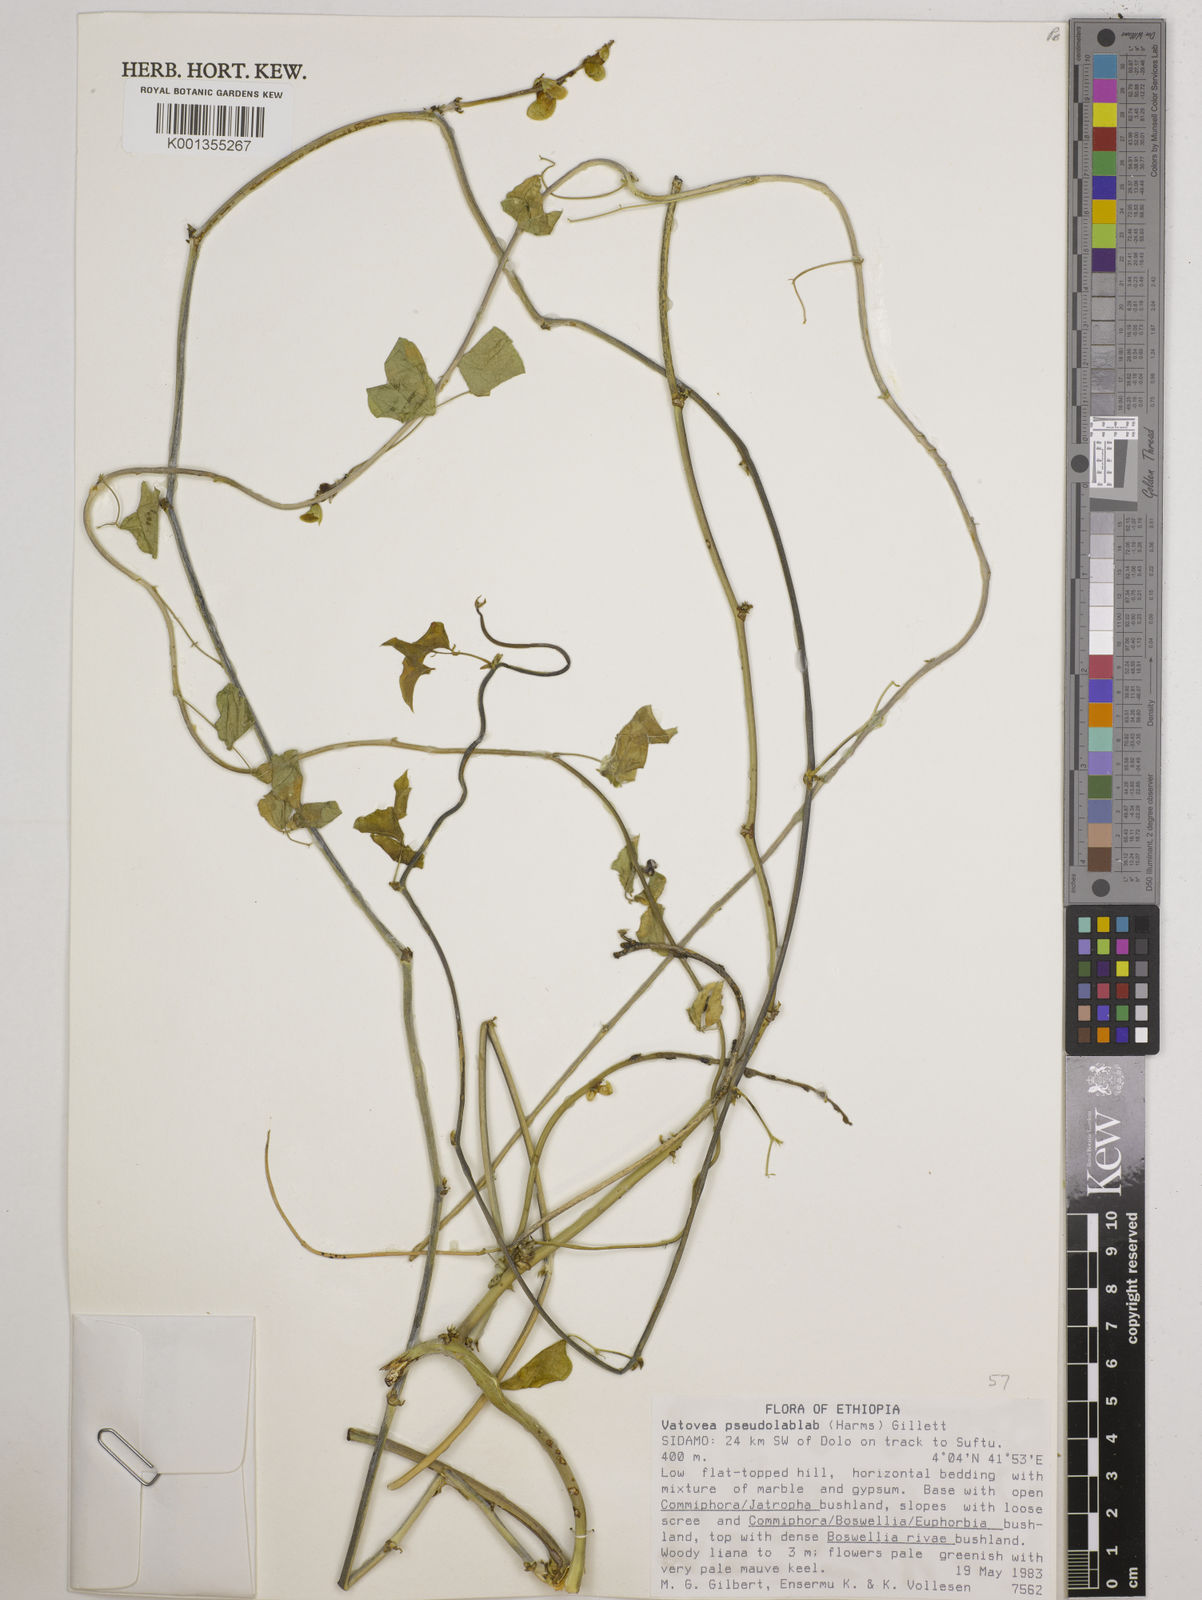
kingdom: Plantae
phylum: Tracheophyta
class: Magnoliopsida
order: Fabales
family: Fabaceae
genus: Vatovaea
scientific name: Vatovaea pseudolablab
